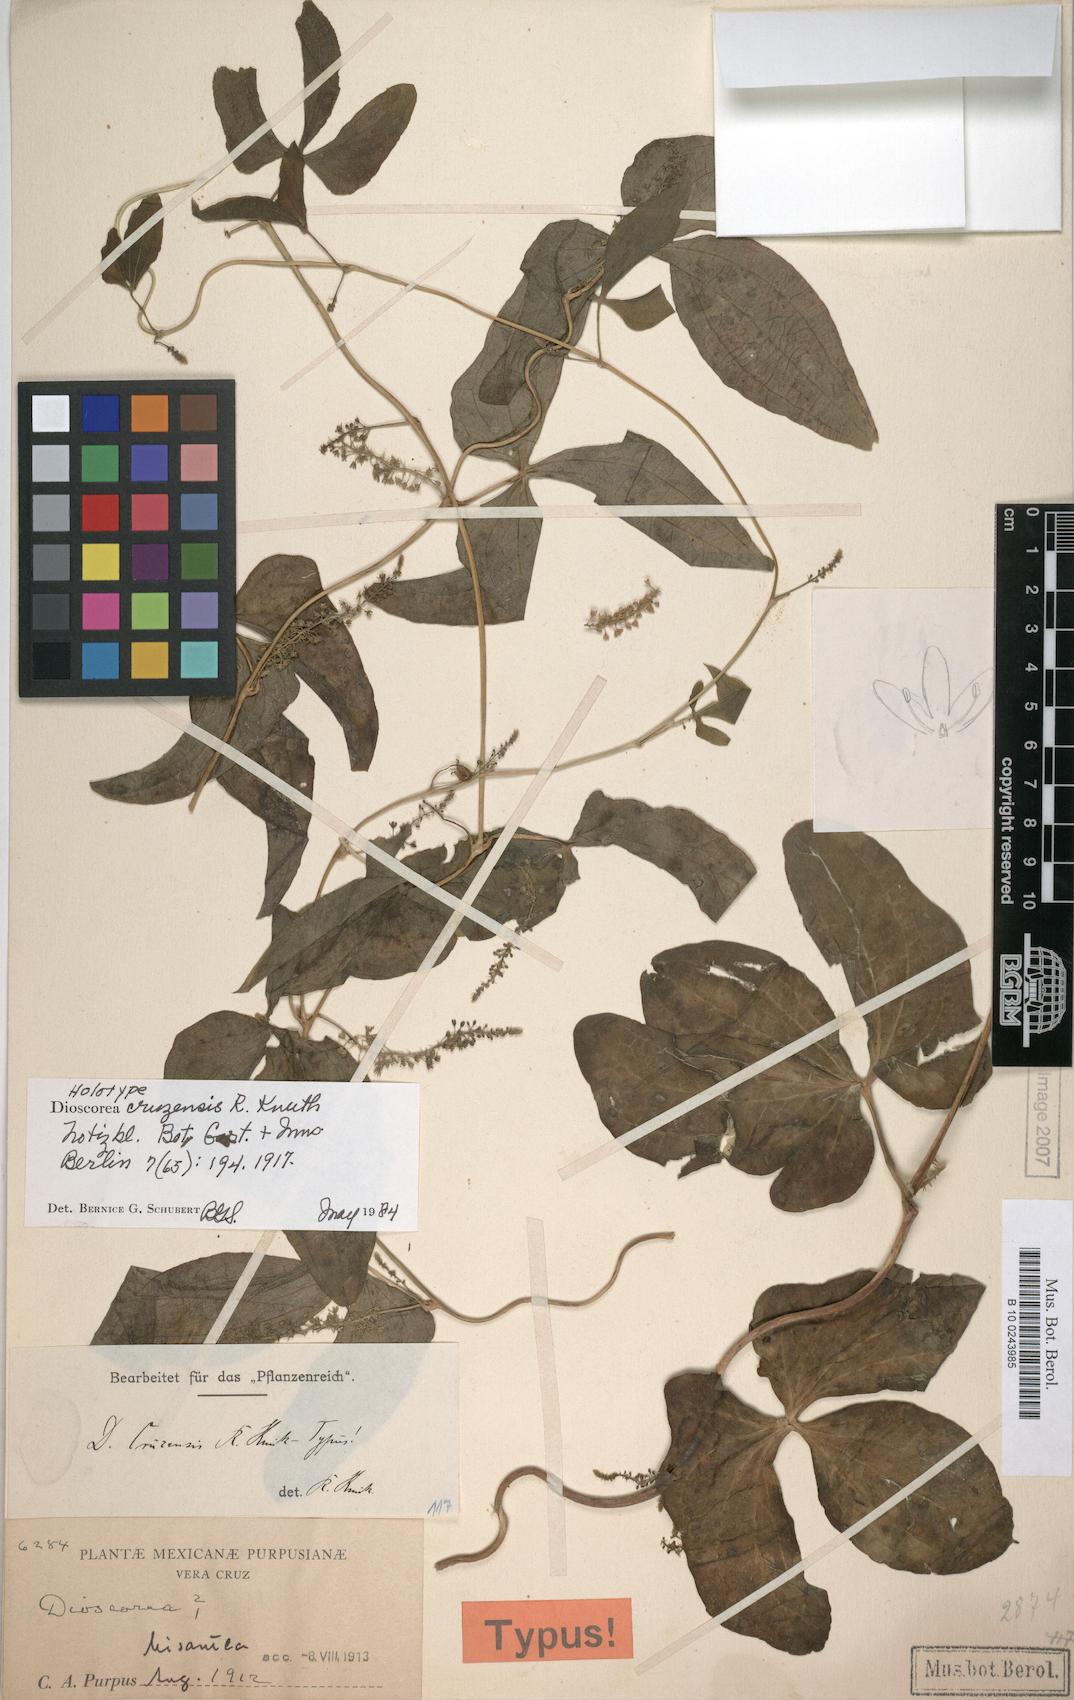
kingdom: Plantae
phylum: Tracheophyta
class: Liliopsida
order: Dioscoreales
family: Dioscoreaceae
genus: Dioscorea
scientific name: Dioscorea cruzensis
